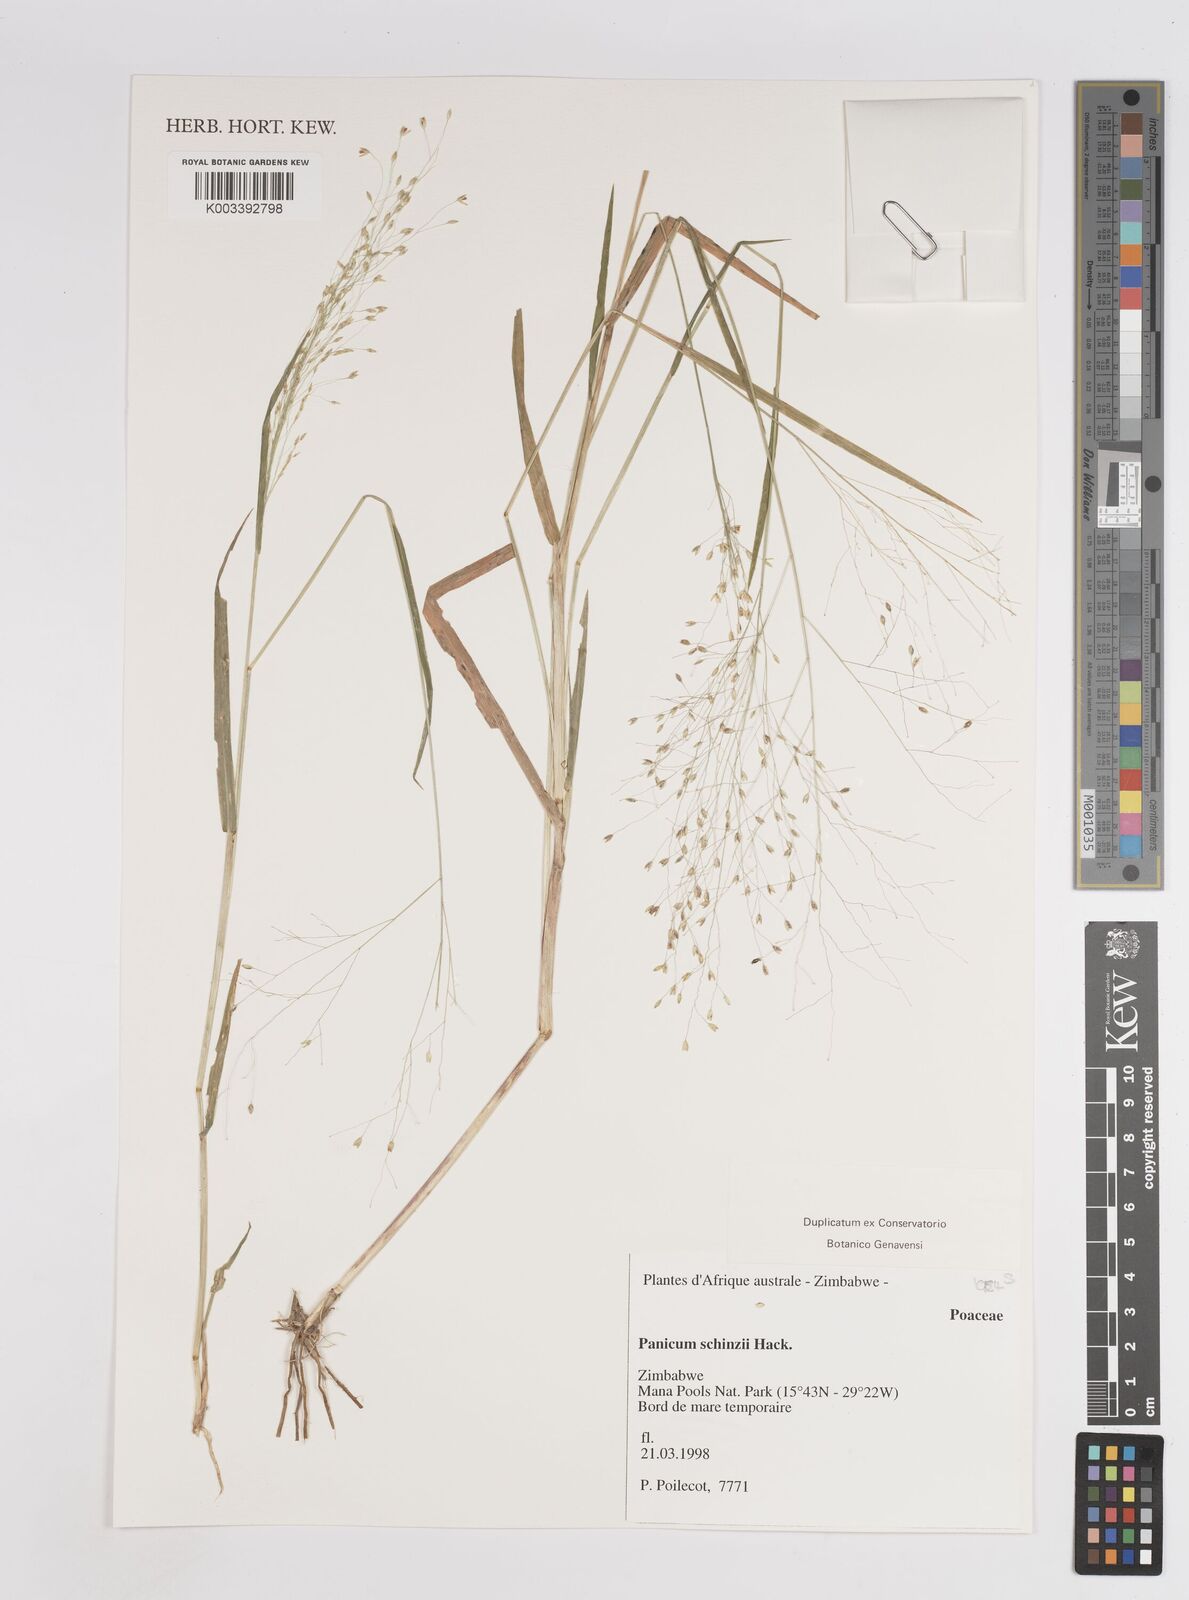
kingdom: Plantae
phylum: Tracheophyta
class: Liliopsida
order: Poales
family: Poaceae
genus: Panicum
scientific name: Panicum
